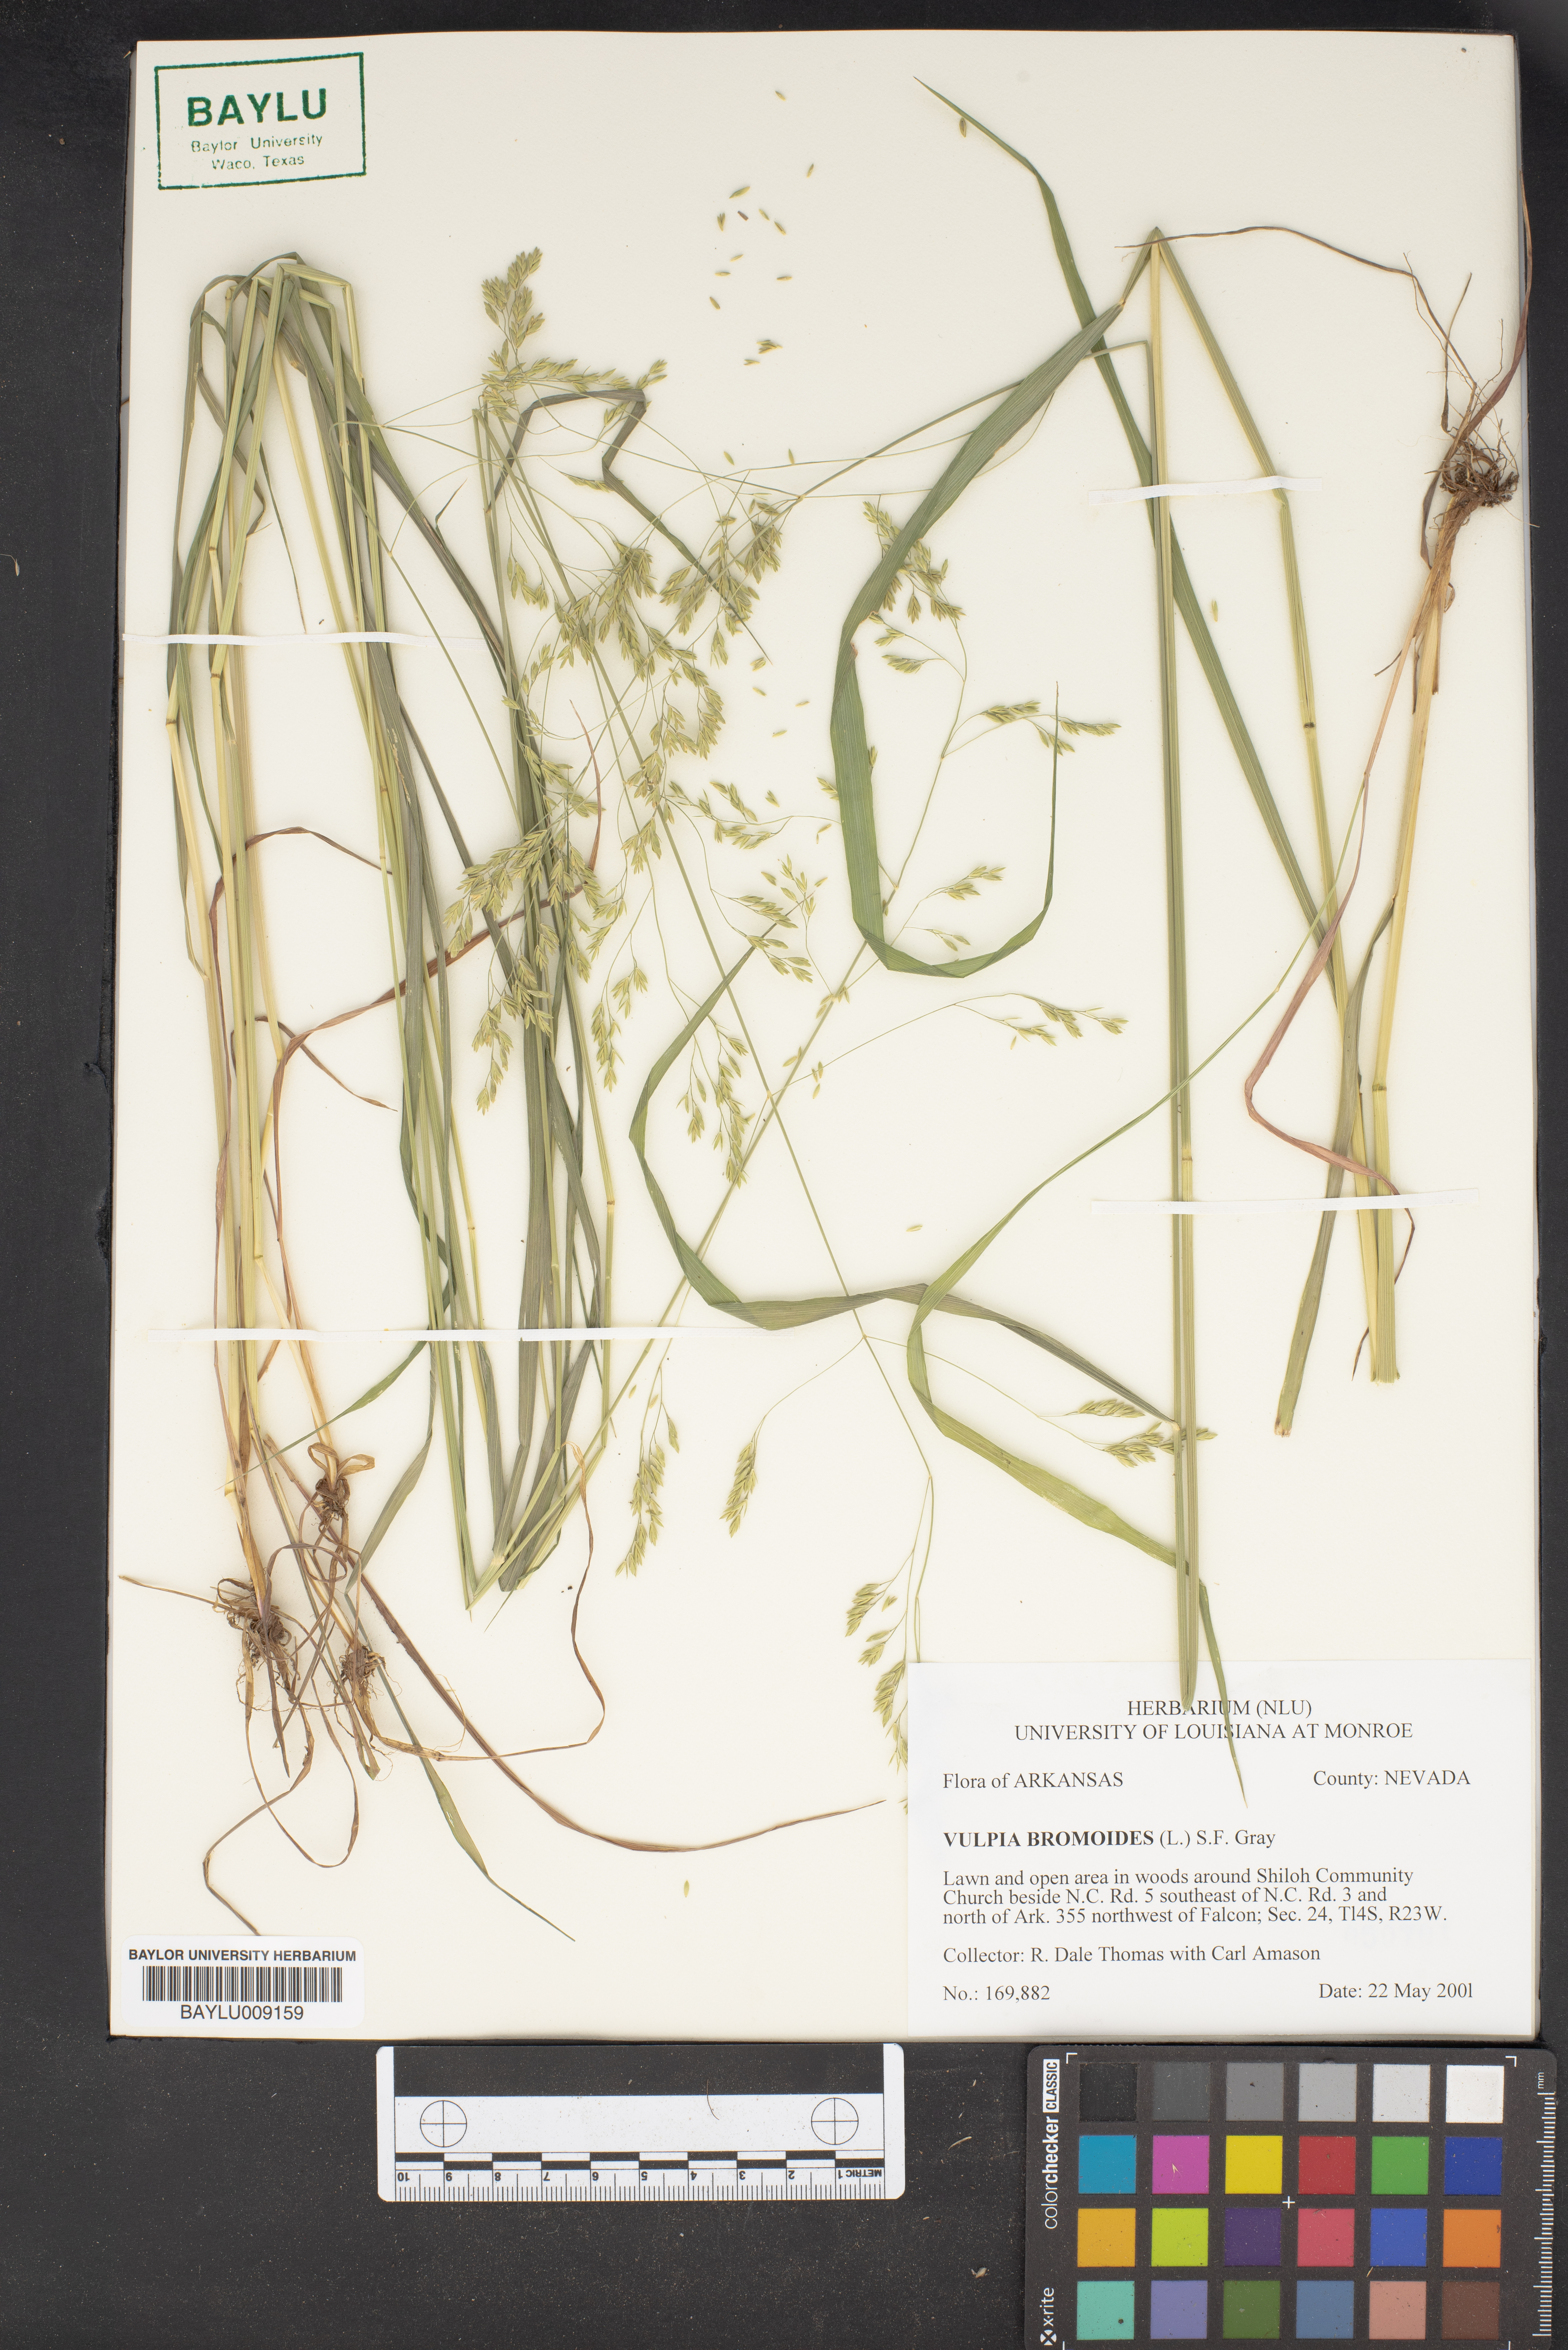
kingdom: Plantae
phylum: Tracheophyta
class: Liliopsida
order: Poales
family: Poaceae
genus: Festuca
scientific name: Festuca bromoides
